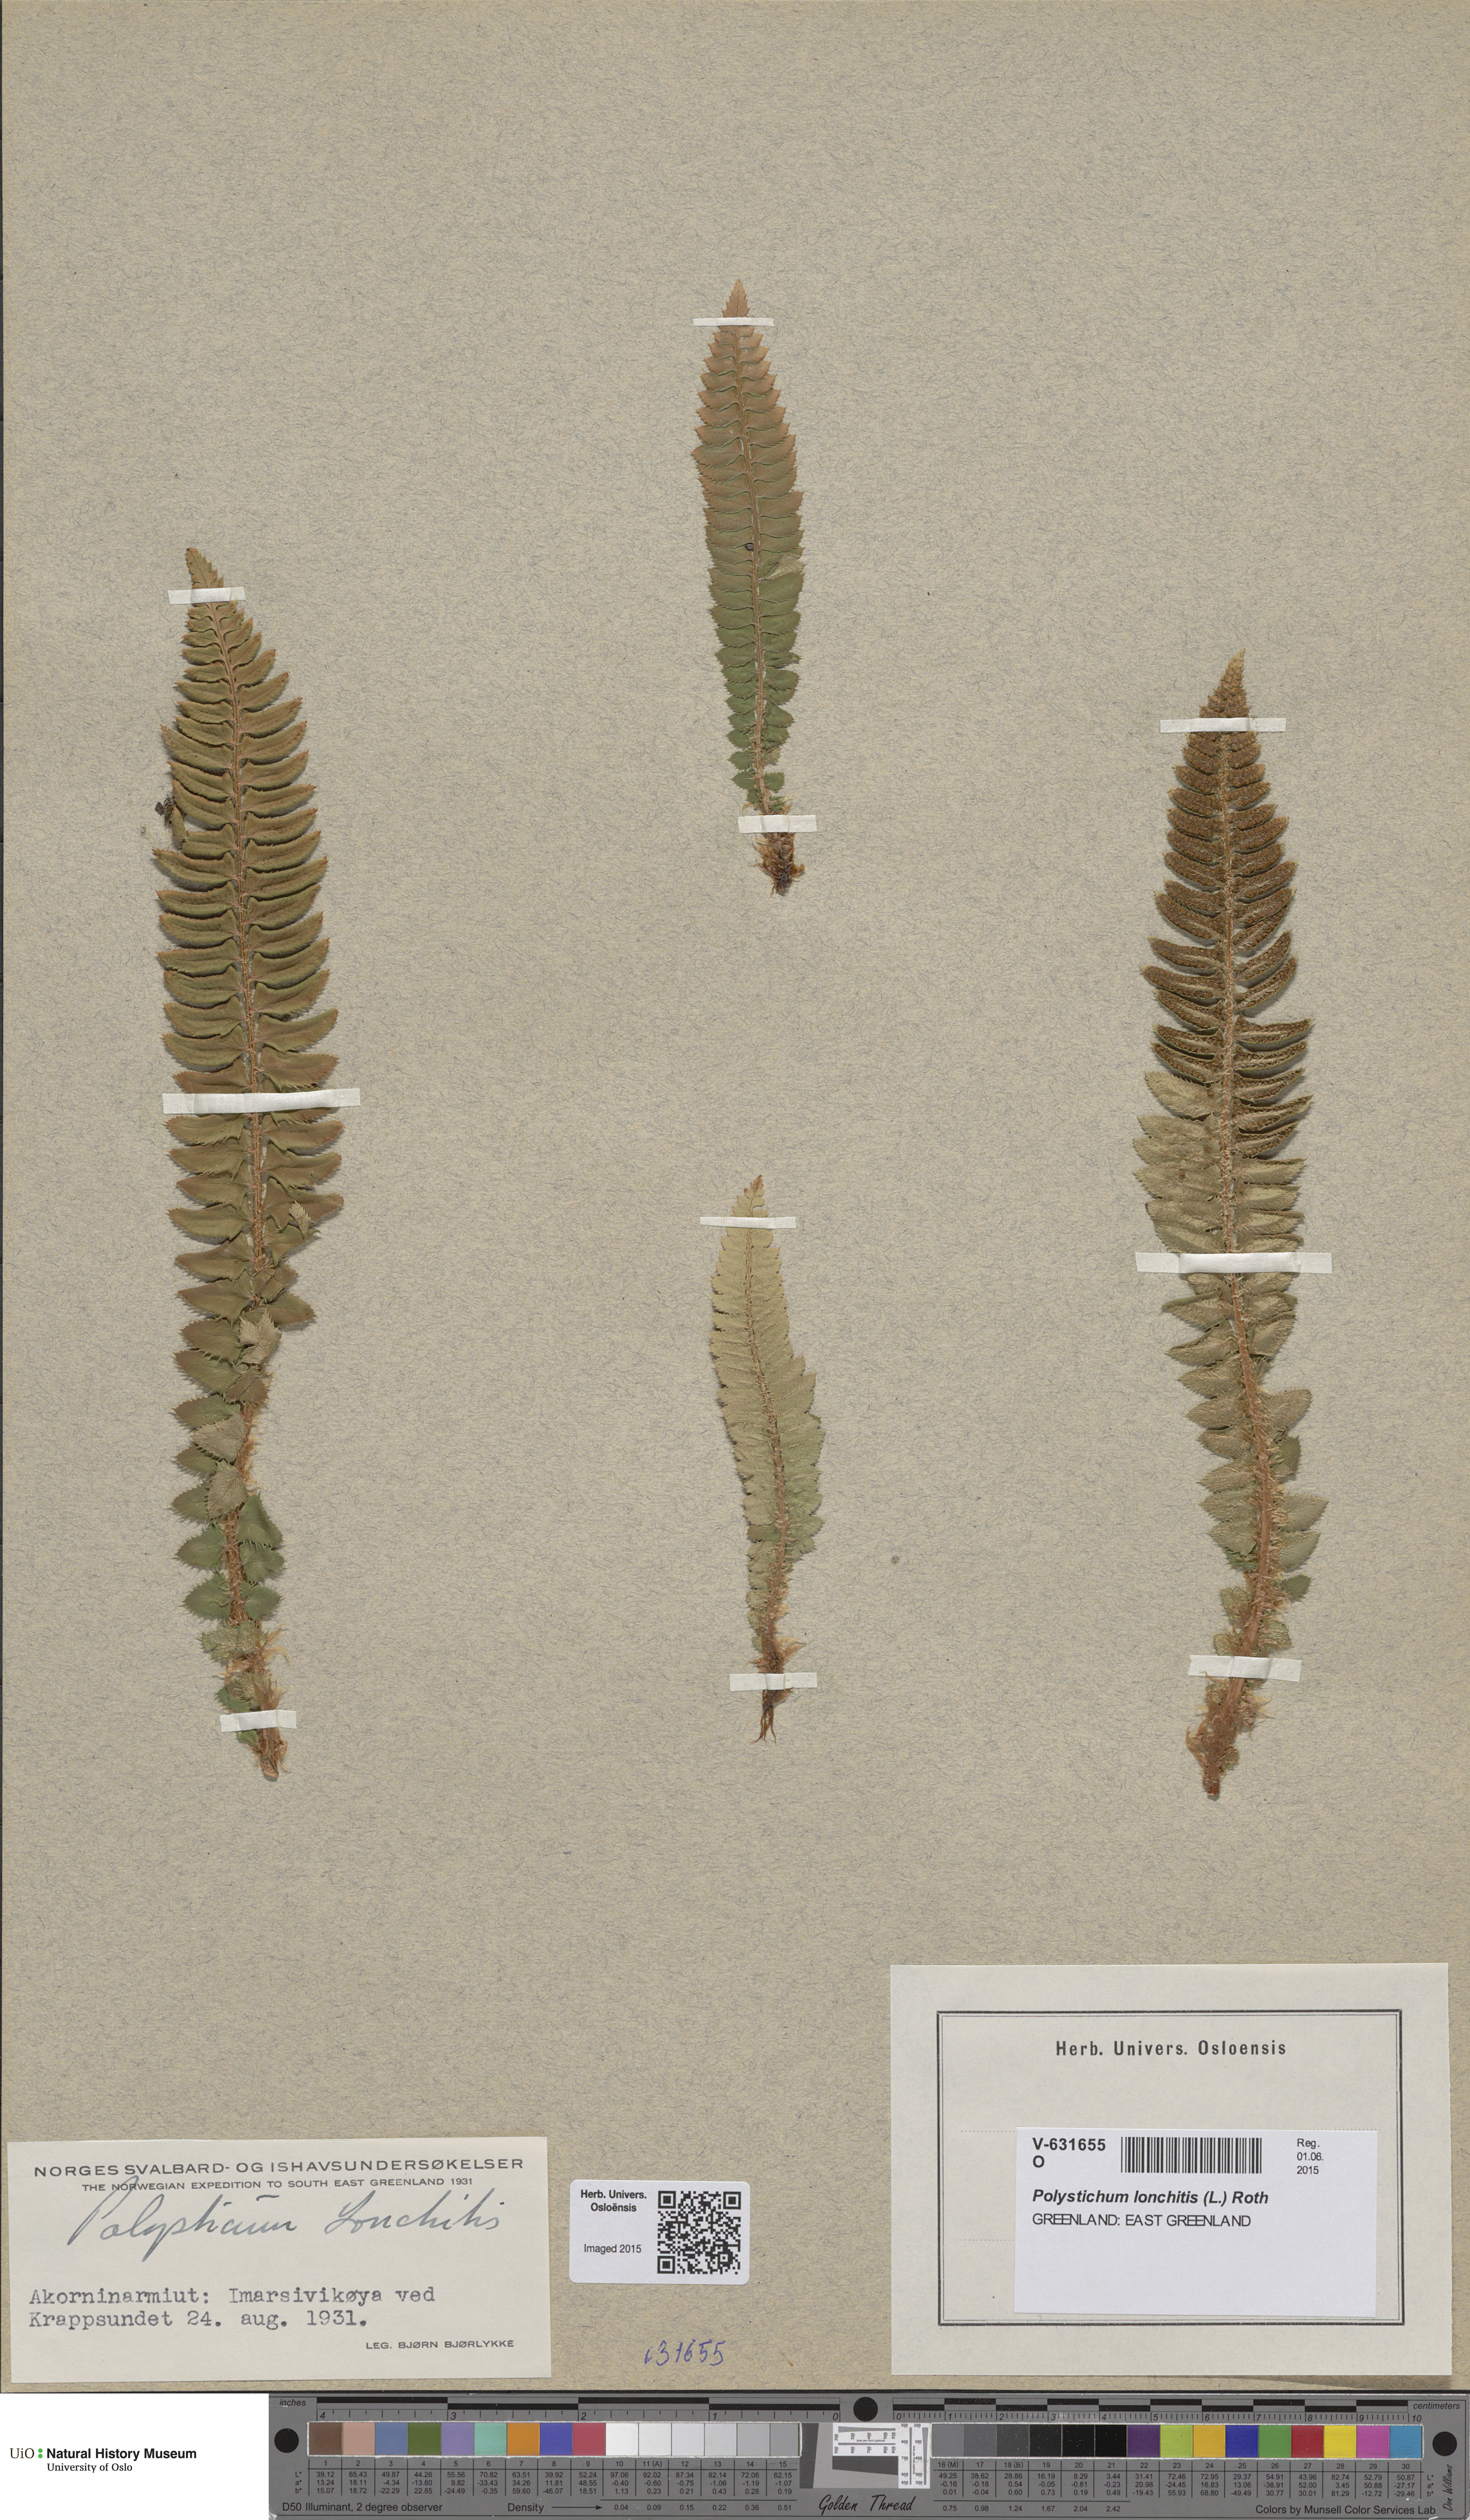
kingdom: Plantae
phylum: Tracheophyta
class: Polypodiopsida
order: Polypodiales
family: Dryopteridaceae
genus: Polystichum
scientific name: Polystichum lonchitis
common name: Holly fern
